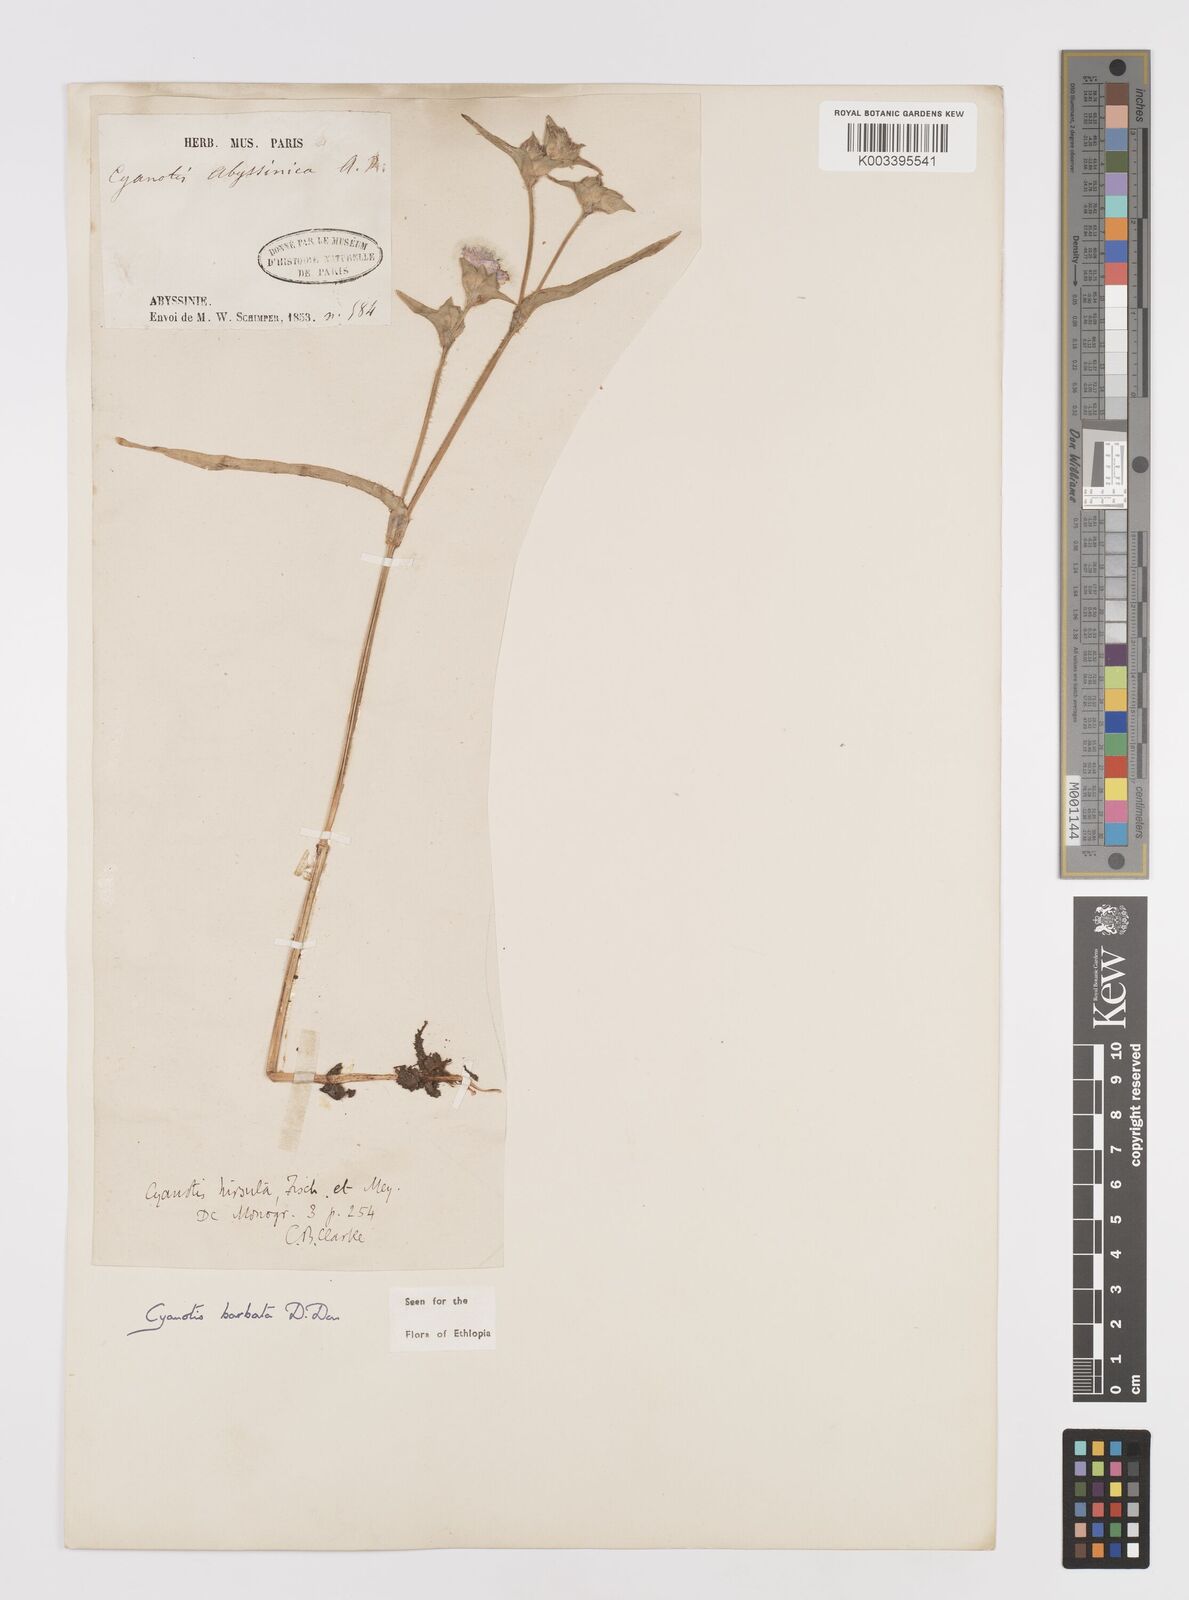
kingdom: Plantae
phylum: Tracheophyta
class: Liliopsida
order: Commelinales
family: Commelinaceae
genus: Cyanotis
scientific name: Cyanotis vaga
